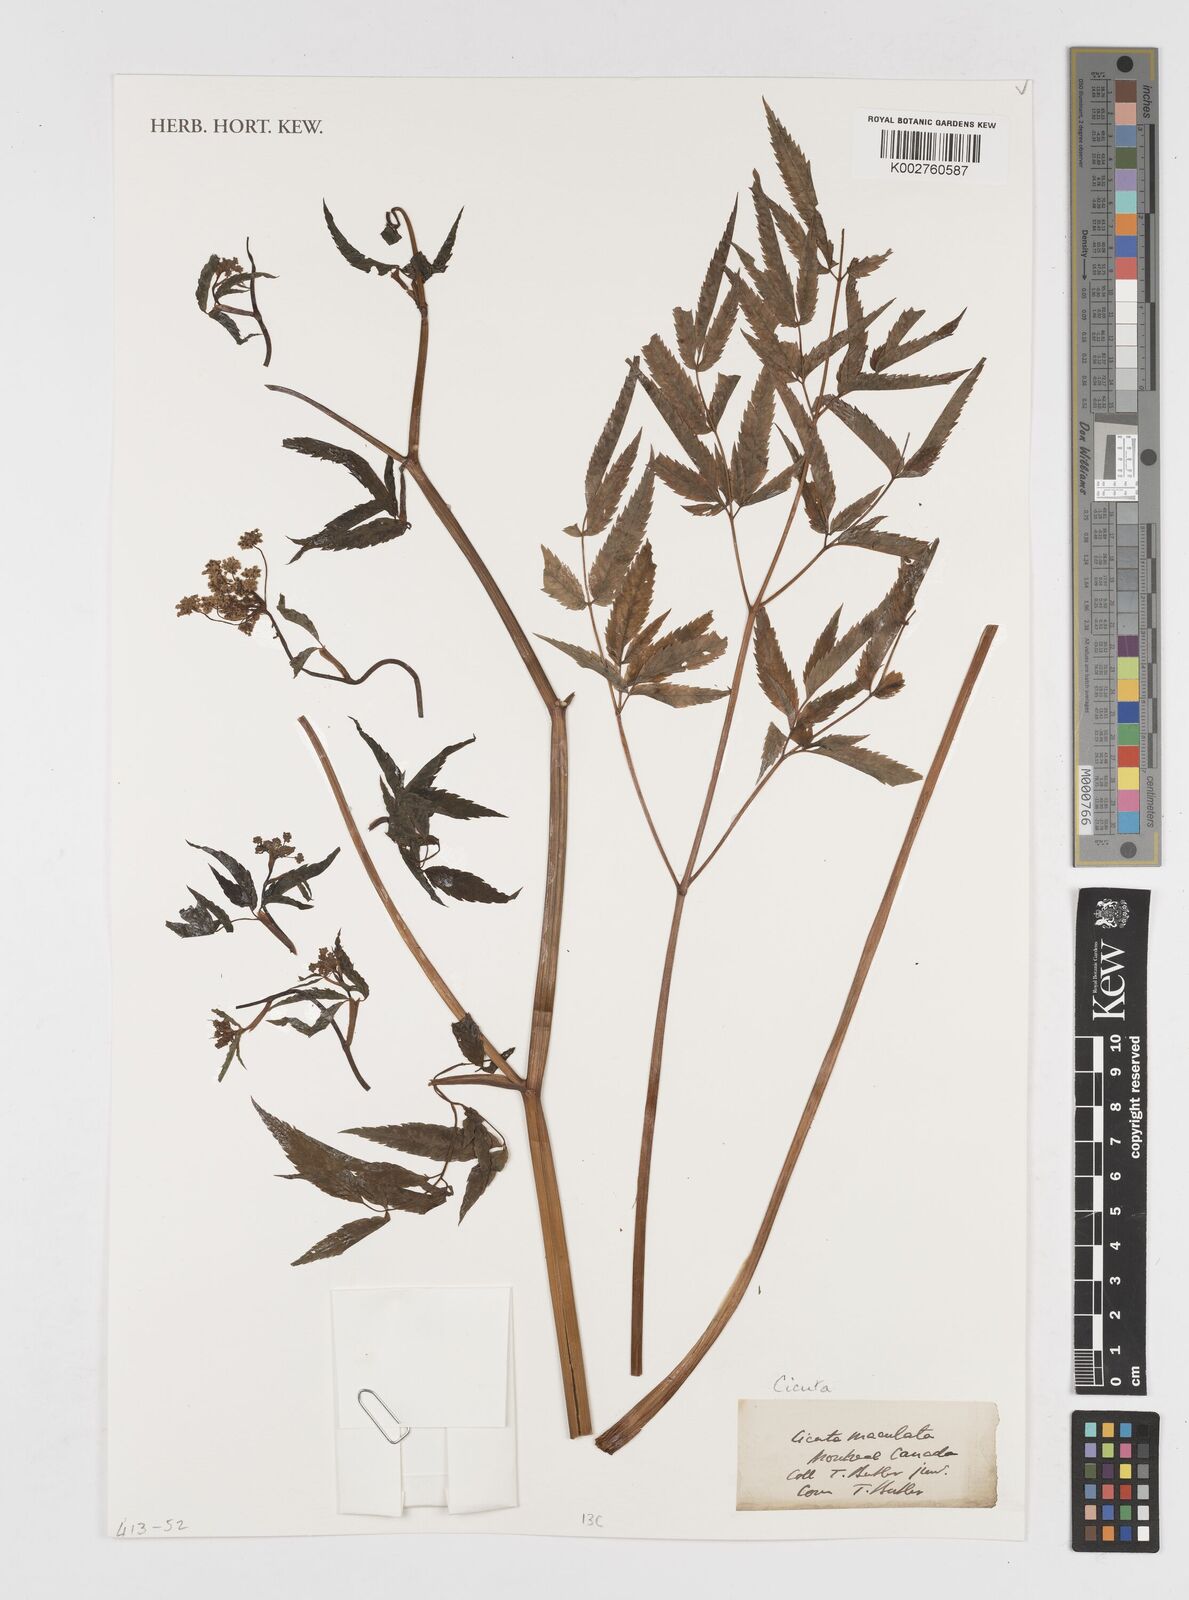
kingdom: Plantae
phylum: Tracheophyta
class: Magnoliopsida
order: Apiales
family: Apiaceae
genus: Cicuta
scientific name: Cicuta maculata
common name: Spotted cowbane
